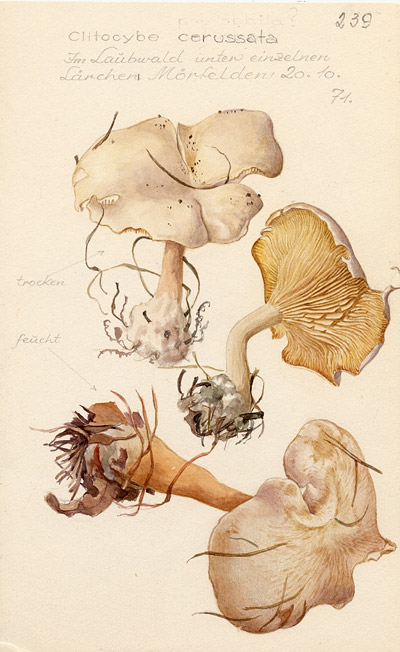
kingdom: Fungi
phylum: Basidiomycota
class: Agaricomycetes
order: Agaricales
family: Tricholomataceae
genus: Clitocybe
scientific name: Clitocybe phyllophila
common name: Frosty funnel
